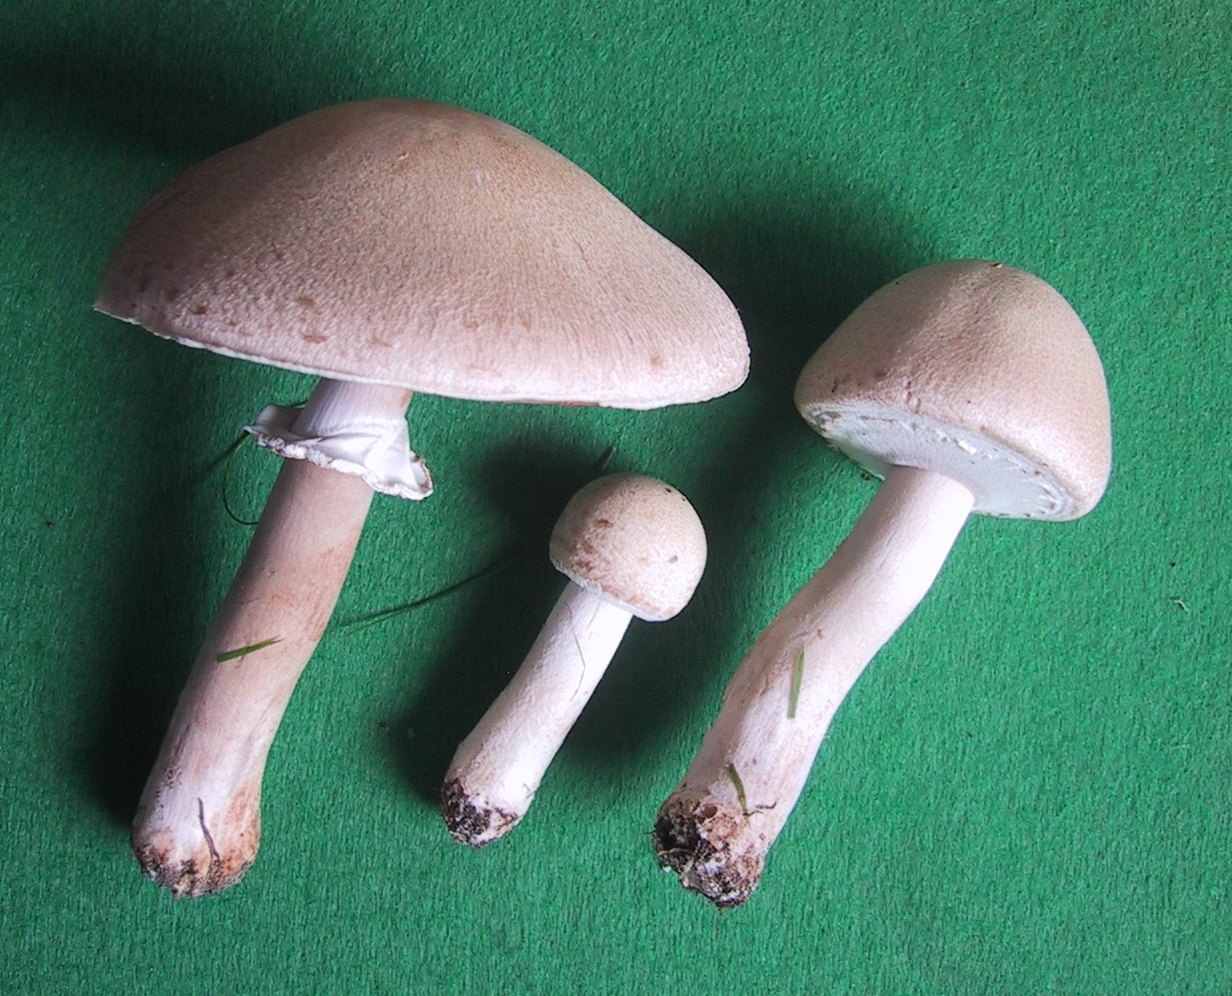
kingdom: Fungi
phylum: Basidiomycota
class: Agaricomycetes
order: Agaricales
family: Agaricaceae
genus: Agaricus
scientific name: Agaricus campestris
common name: mark-champignon
